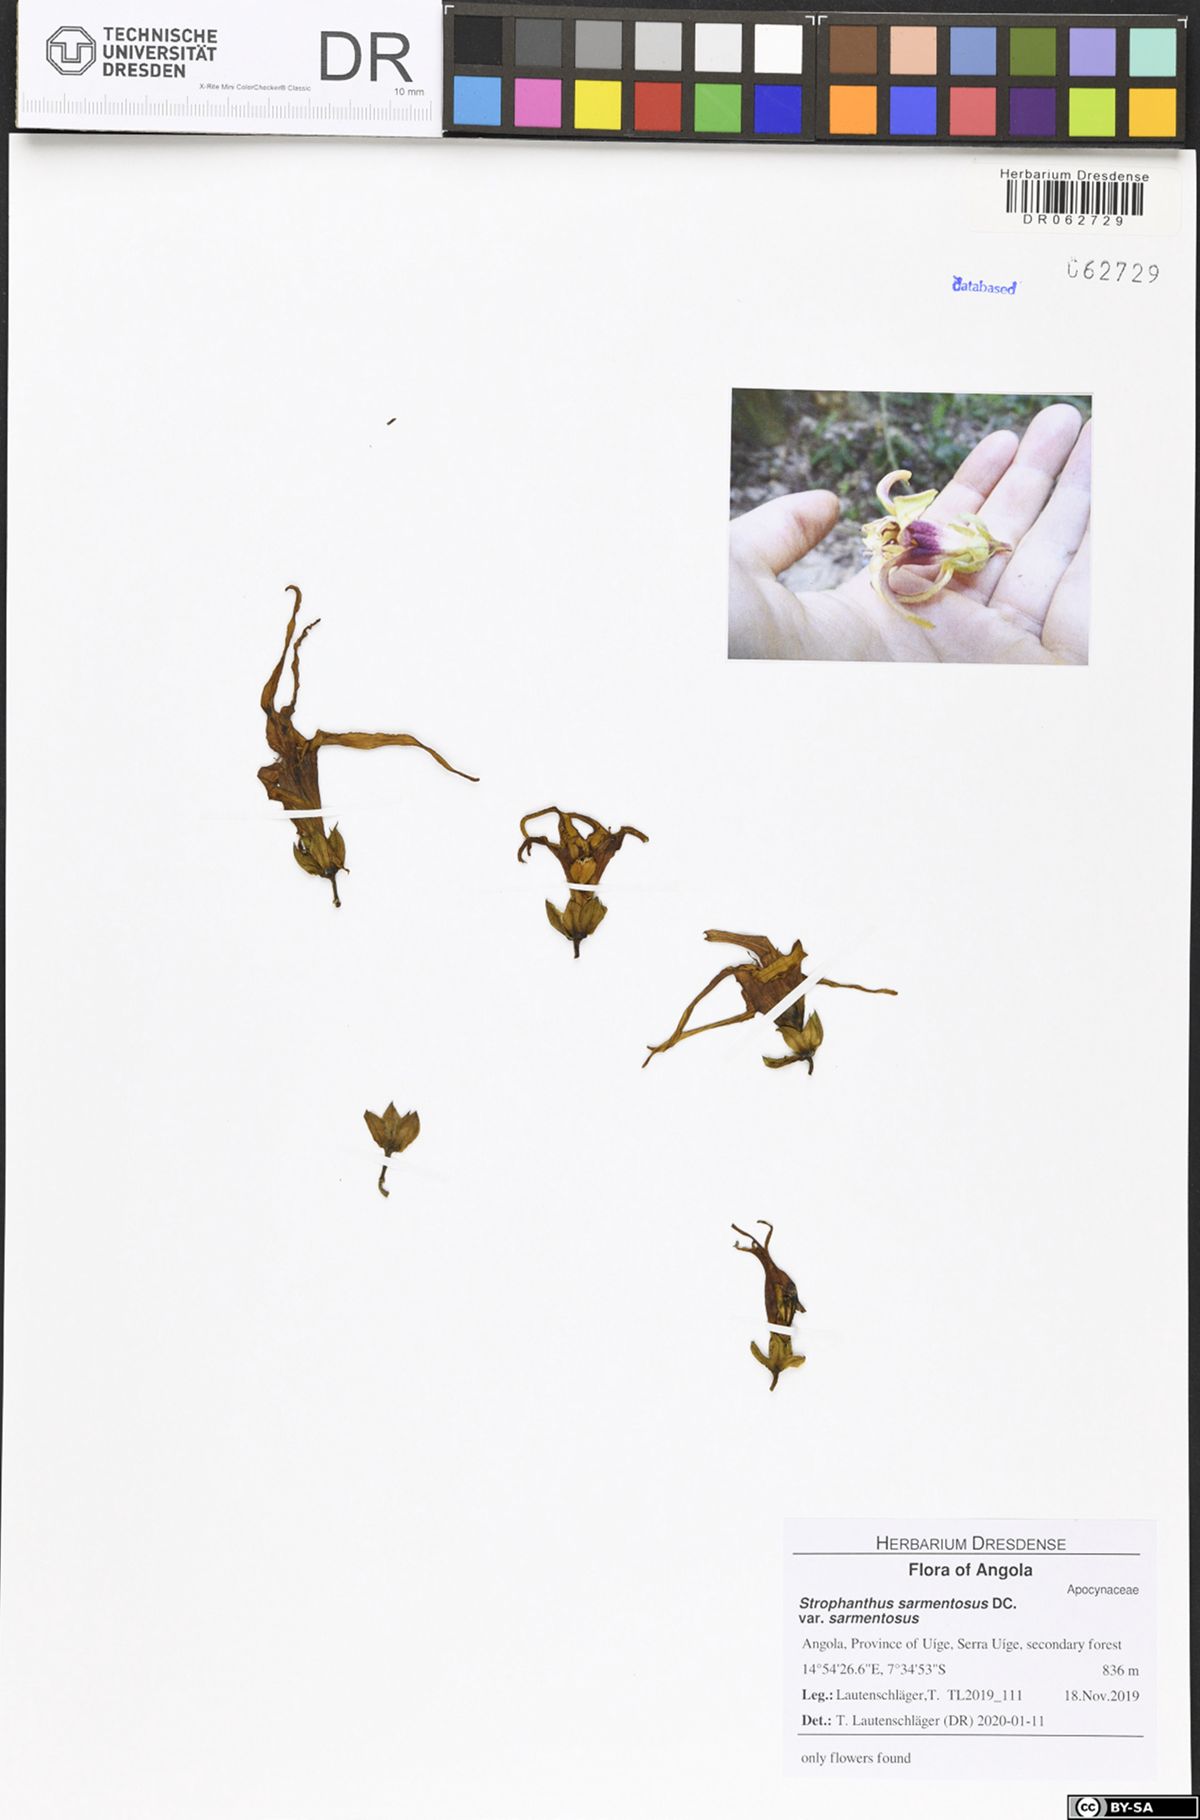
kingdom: Plantae
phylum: Tracheophyta
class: Magnoliopsida
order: Gentianales
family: Apocynaceae
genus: Strophanthus
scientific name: Strophanthus sarmentosus
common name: Poison arrowvine
